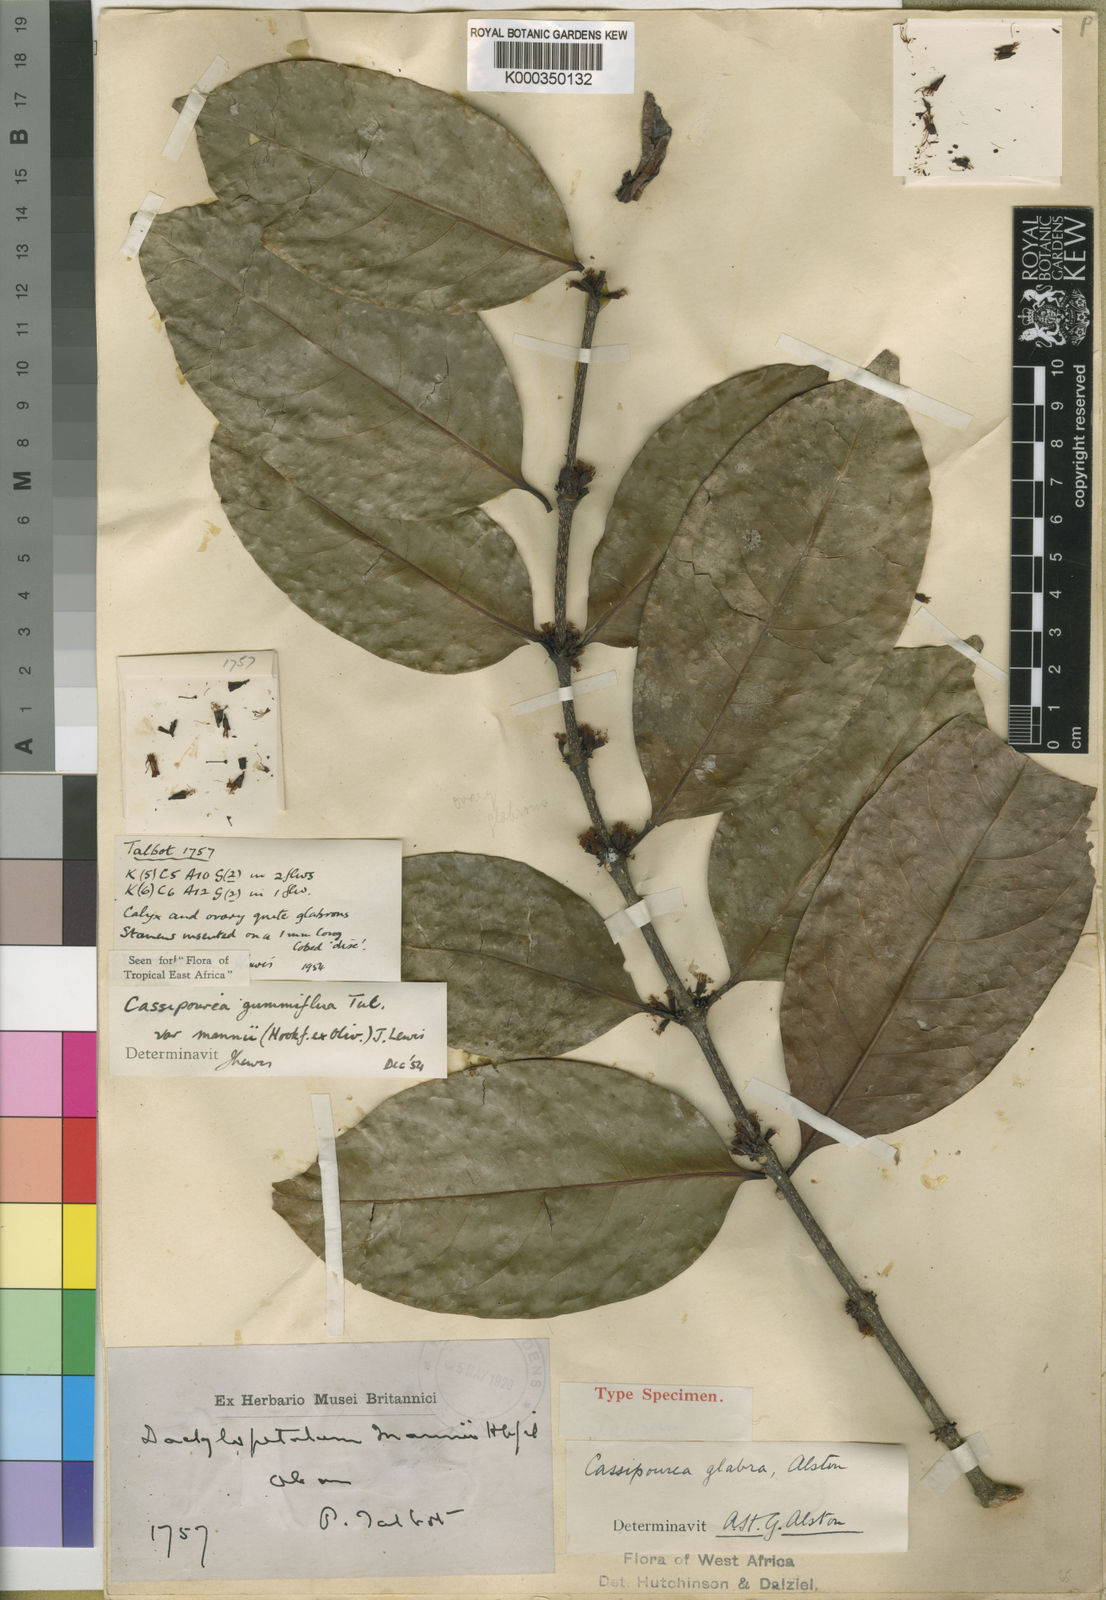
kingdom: Plantae
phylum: Tracheophyta
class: Magnoliopsida
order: Malpighiales
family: Rhizophoraceae
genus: Cassipourea
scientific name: Cassipourea gummiflua
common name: Large-leaved onionwood
